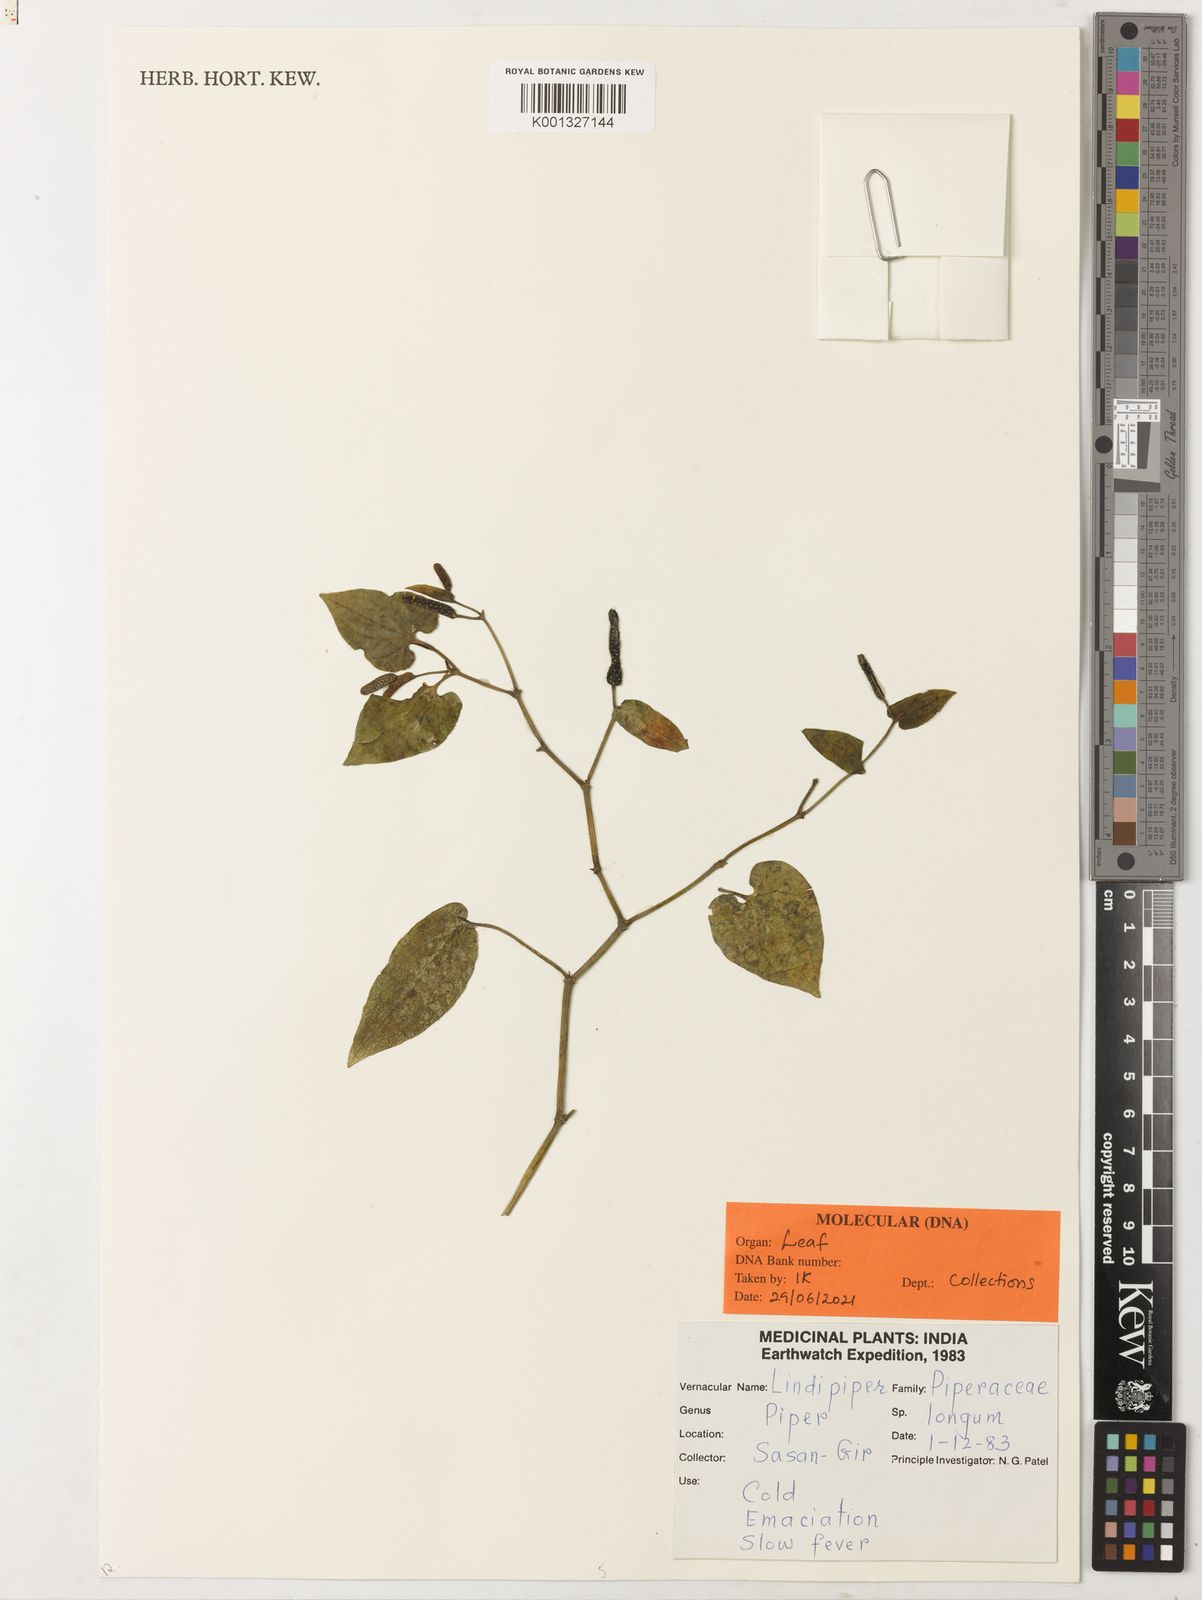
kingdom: Plantae
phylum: Tracheophyta
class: Magnoliopsida
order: Piperales
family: Piperaceae
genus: Piper
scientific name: Piper
